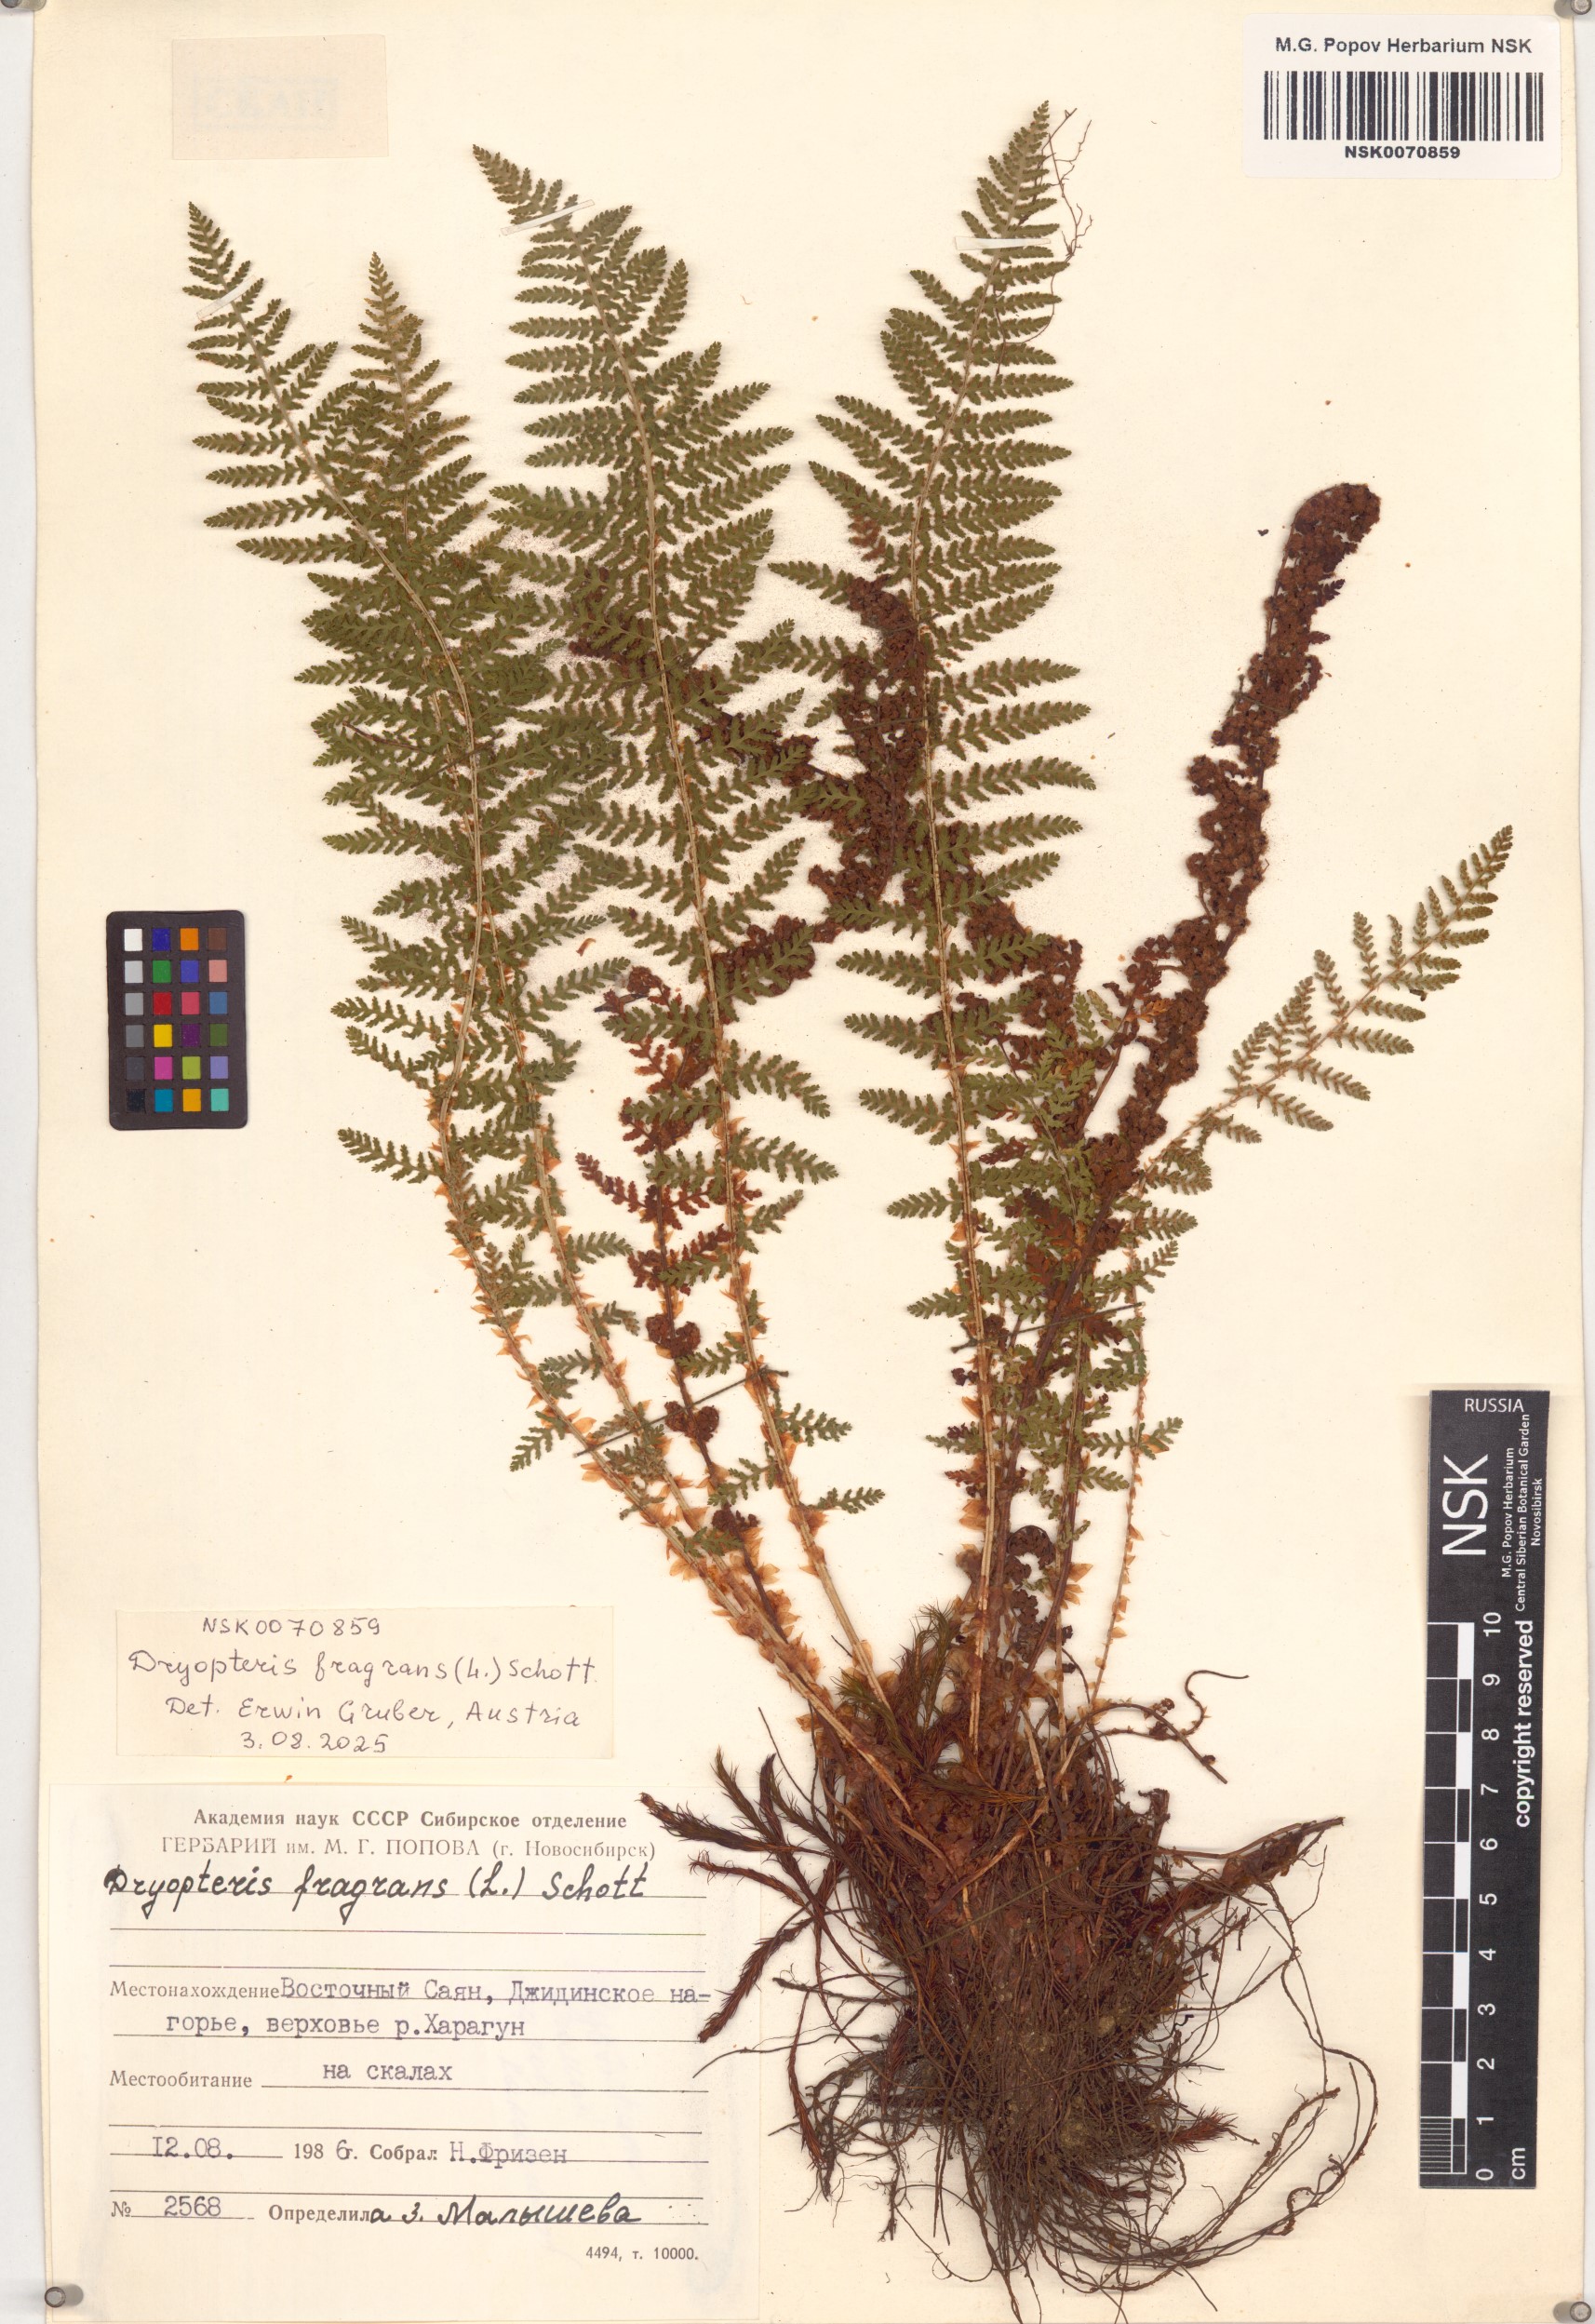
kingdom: Plantae
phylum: Tracheophyta
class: Polypodiopsida
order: Polypodiales
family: Dryopteridaceae
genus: Polystichum
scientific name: Polystichum braunii
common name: Braun's holly fern
